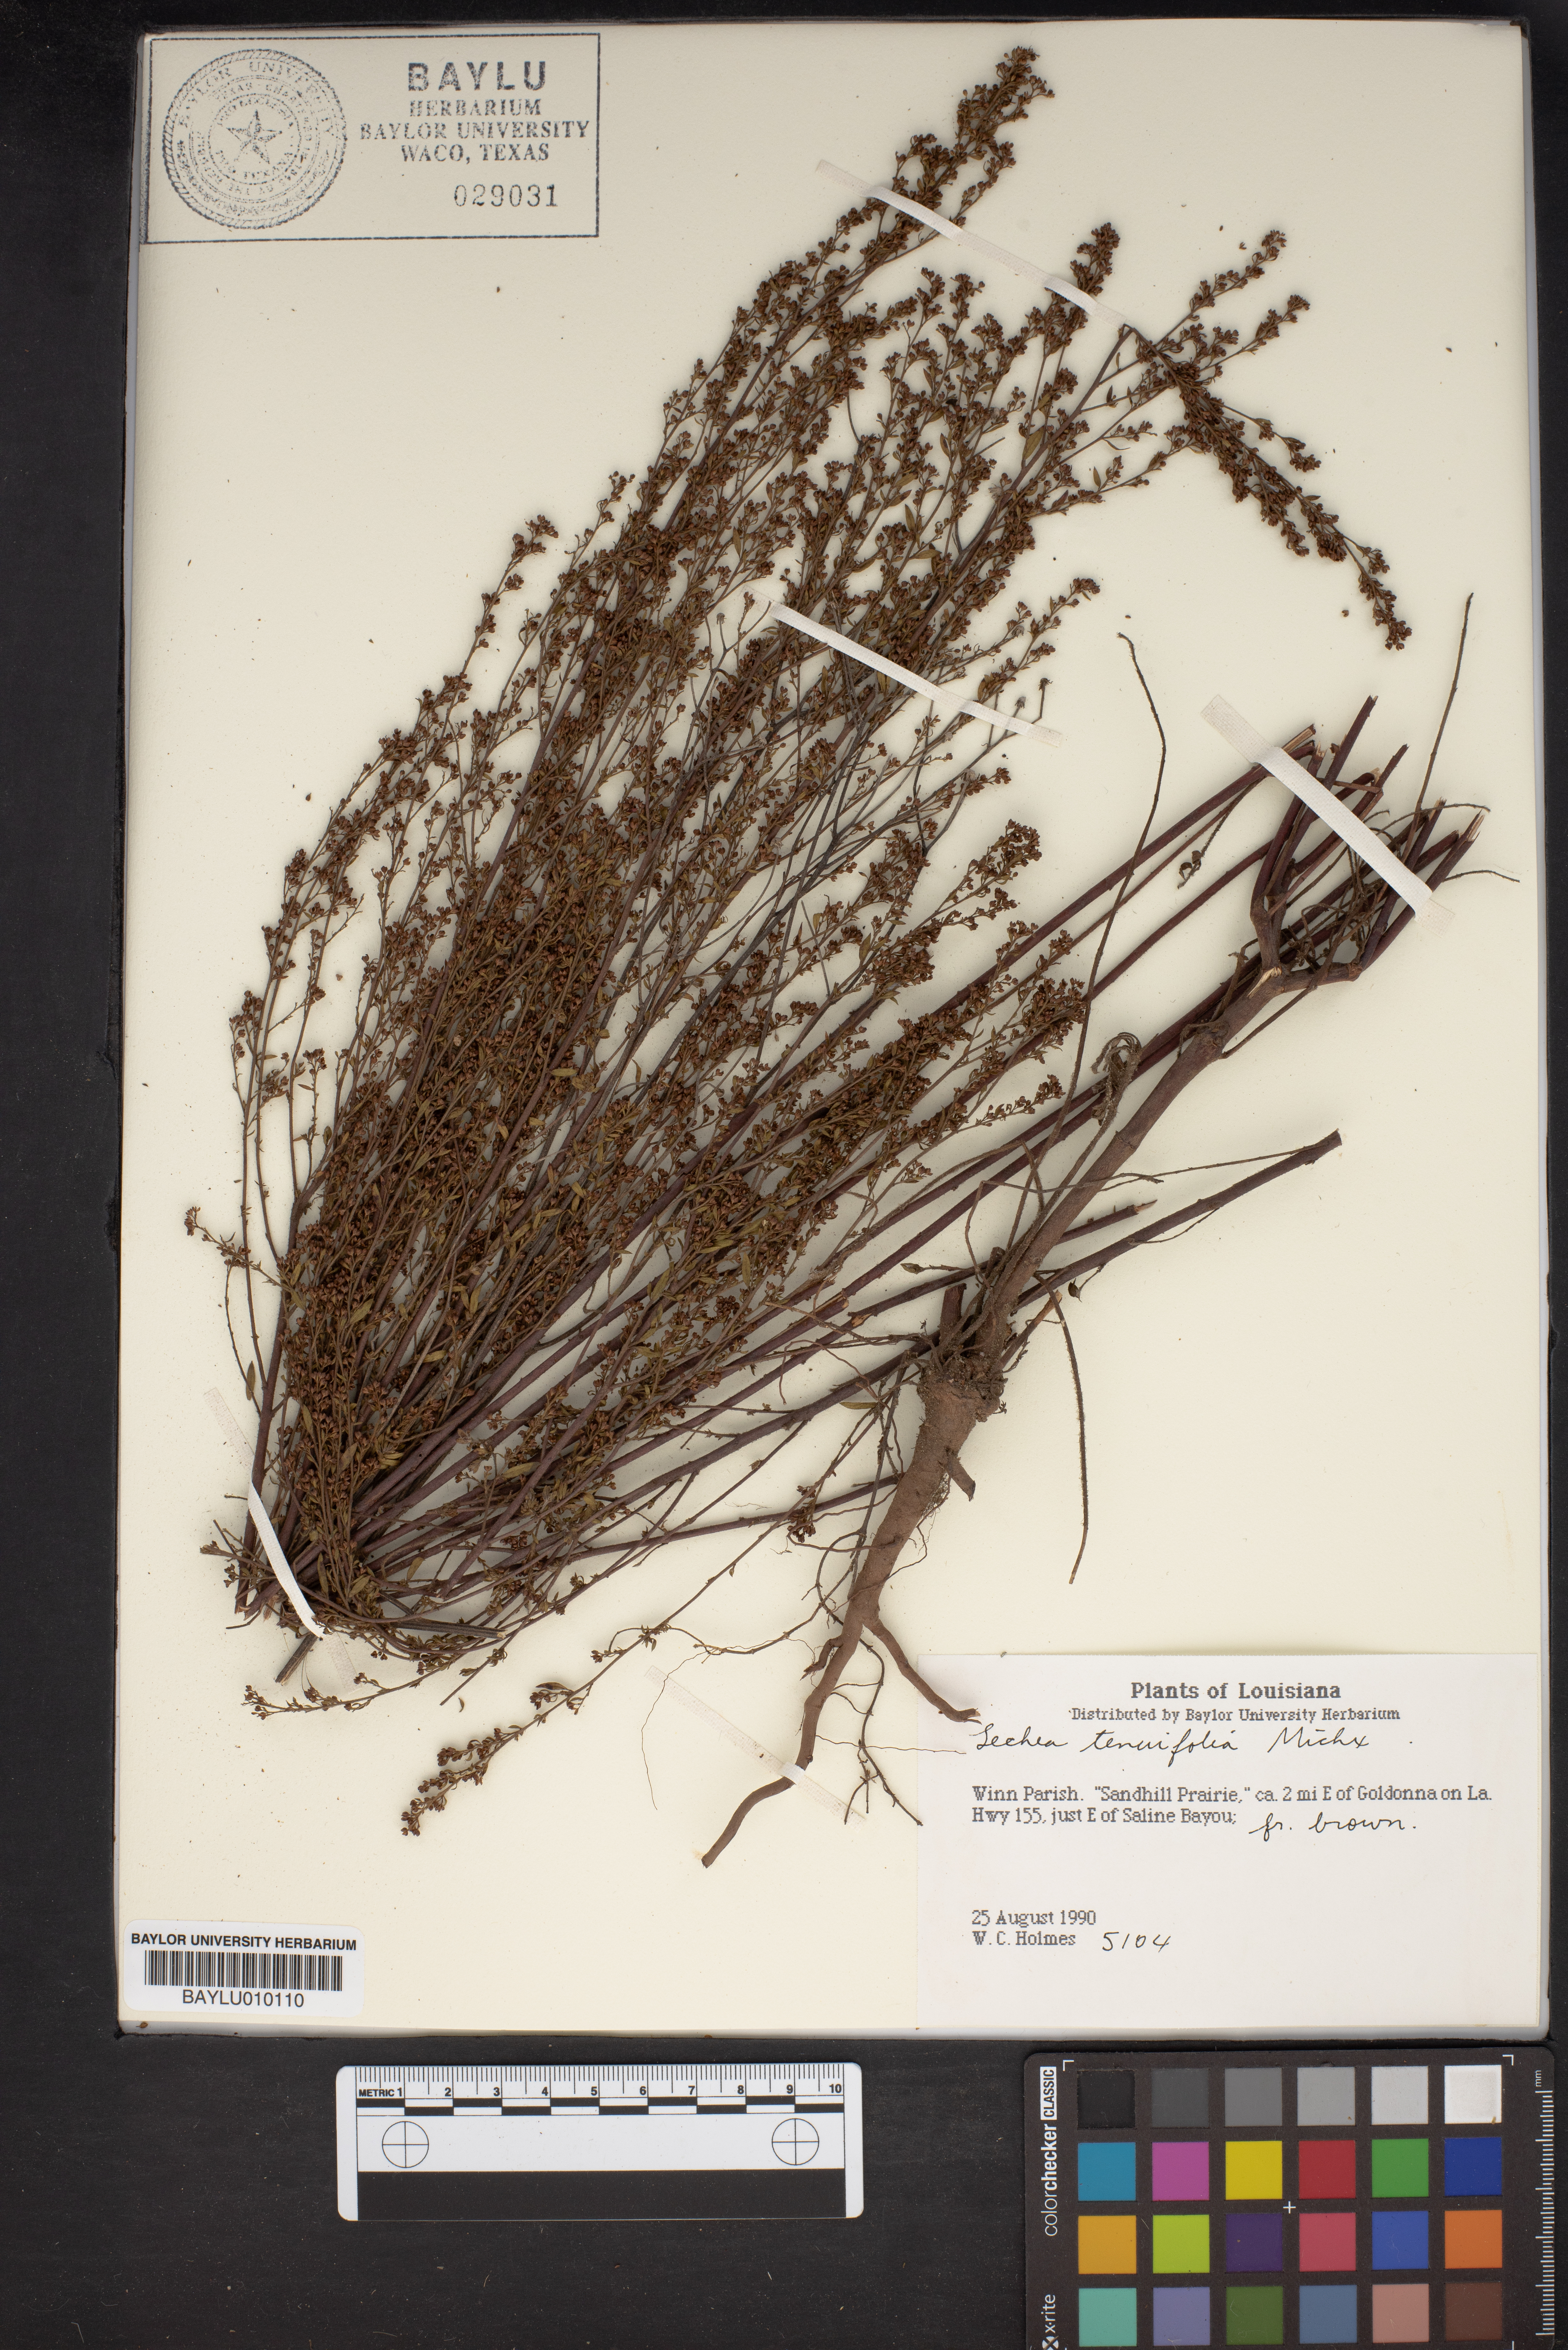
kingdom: Plantae
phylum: Tracheophyta
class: Magnoliopsida
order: Malvales
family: Cistaceae
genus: Lechea
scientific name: Lechea tenuifolia
